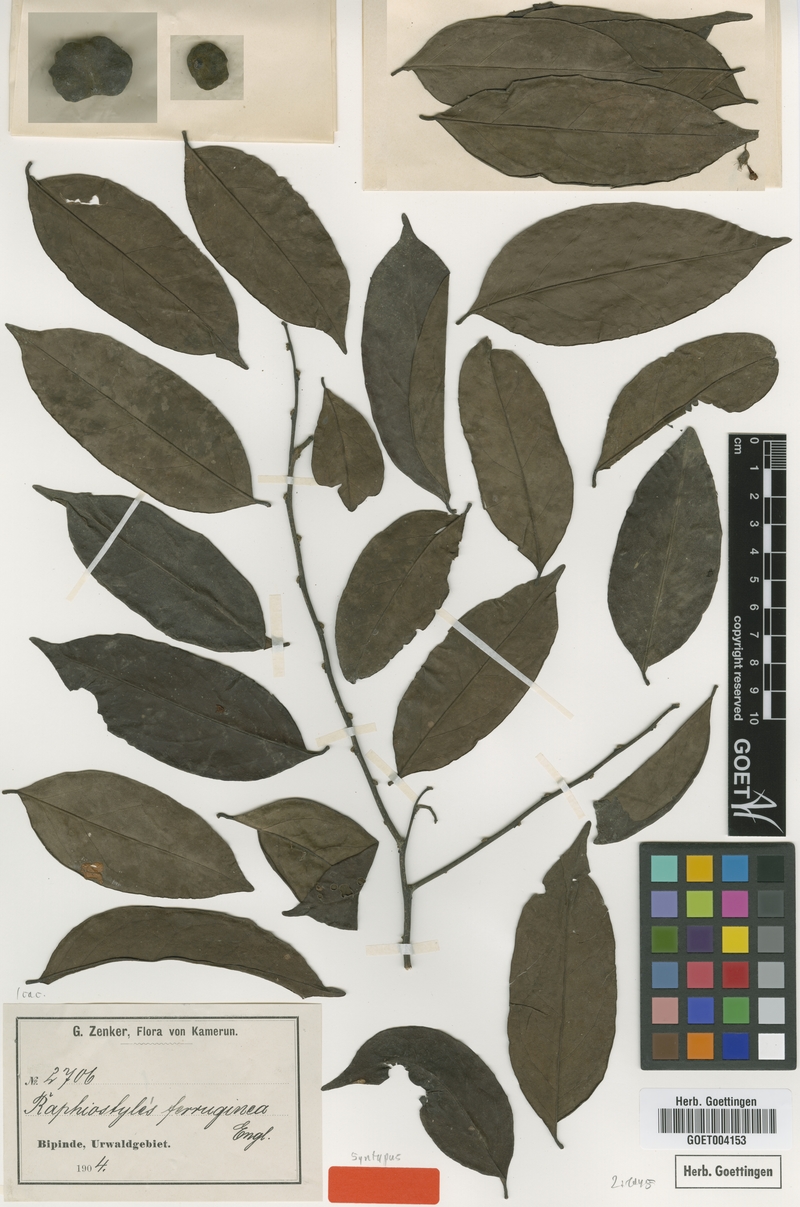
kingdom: Plantae
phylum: Tracheophyta
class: Magnoliopsida
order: Metteniusales
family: Metteniusaceae
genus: Rhaphiostylis
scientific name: Rhaphiostylis ferruginea
